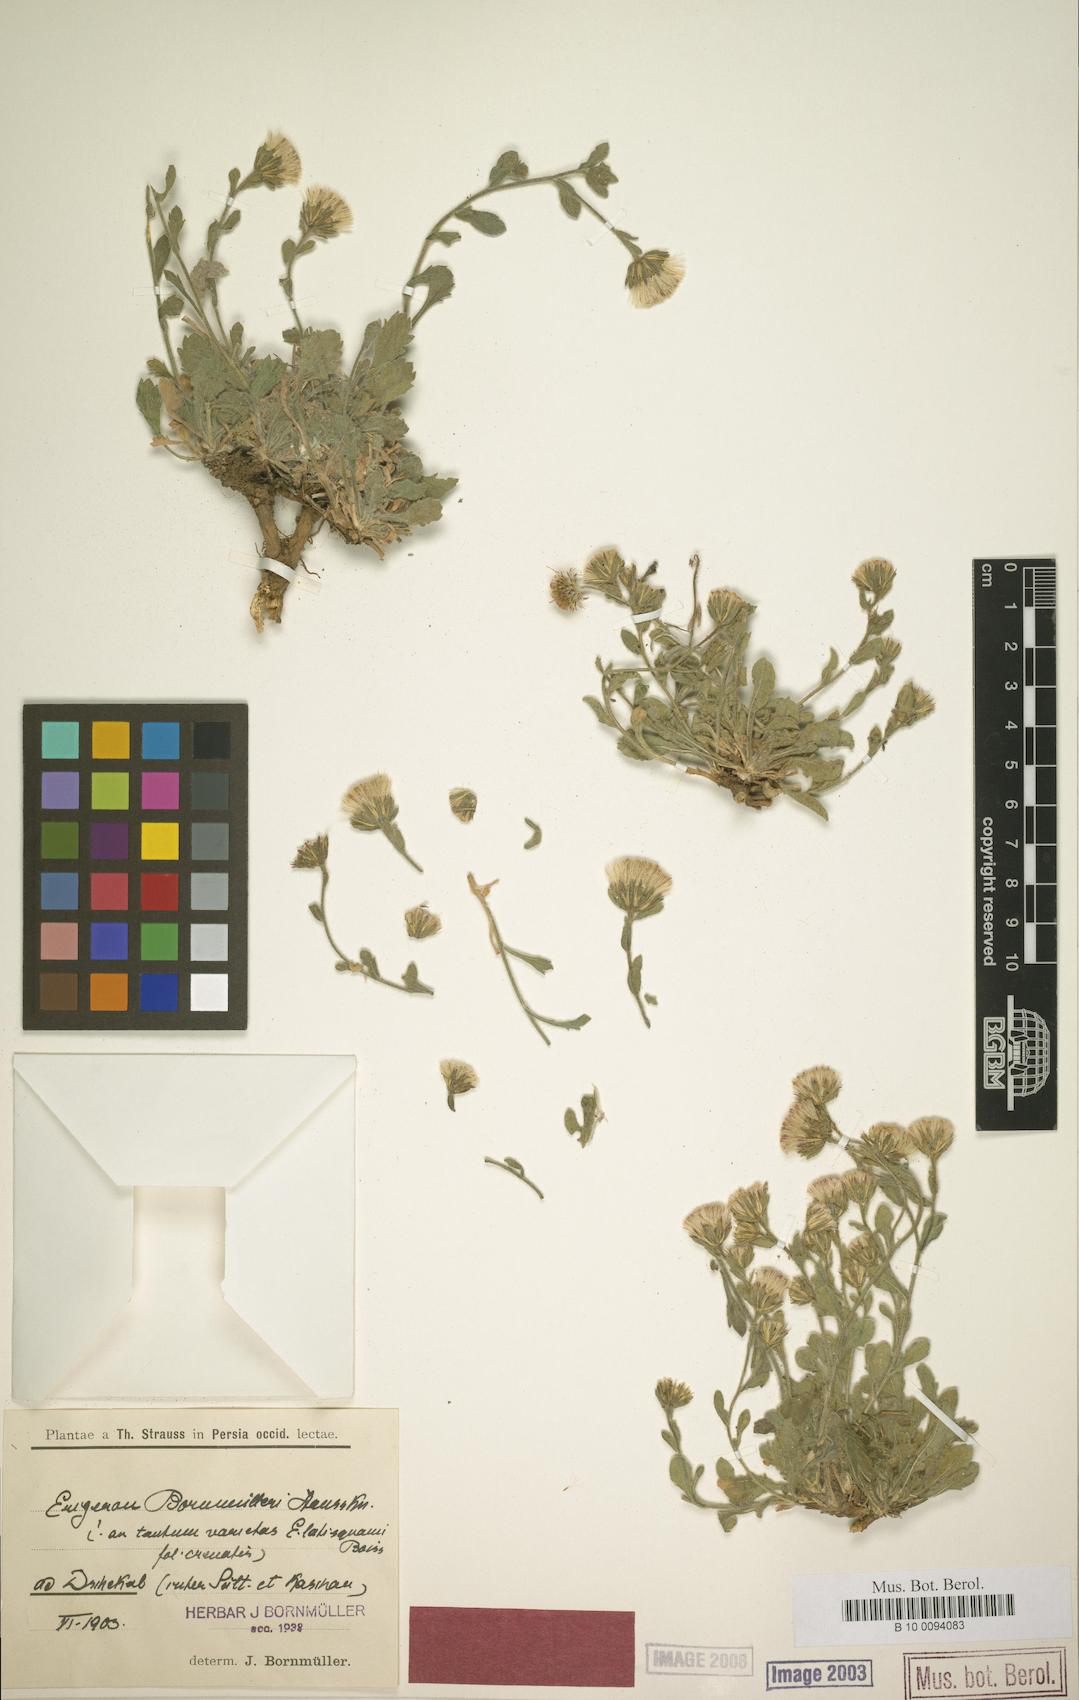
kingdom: Plantae
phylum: Tracheophyta
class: Magnoliopsida
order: Asterales
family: Asteraceae
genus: Symphyotrichum
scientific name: Symphyotrichum ciliatum
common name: Rayless annual aster
